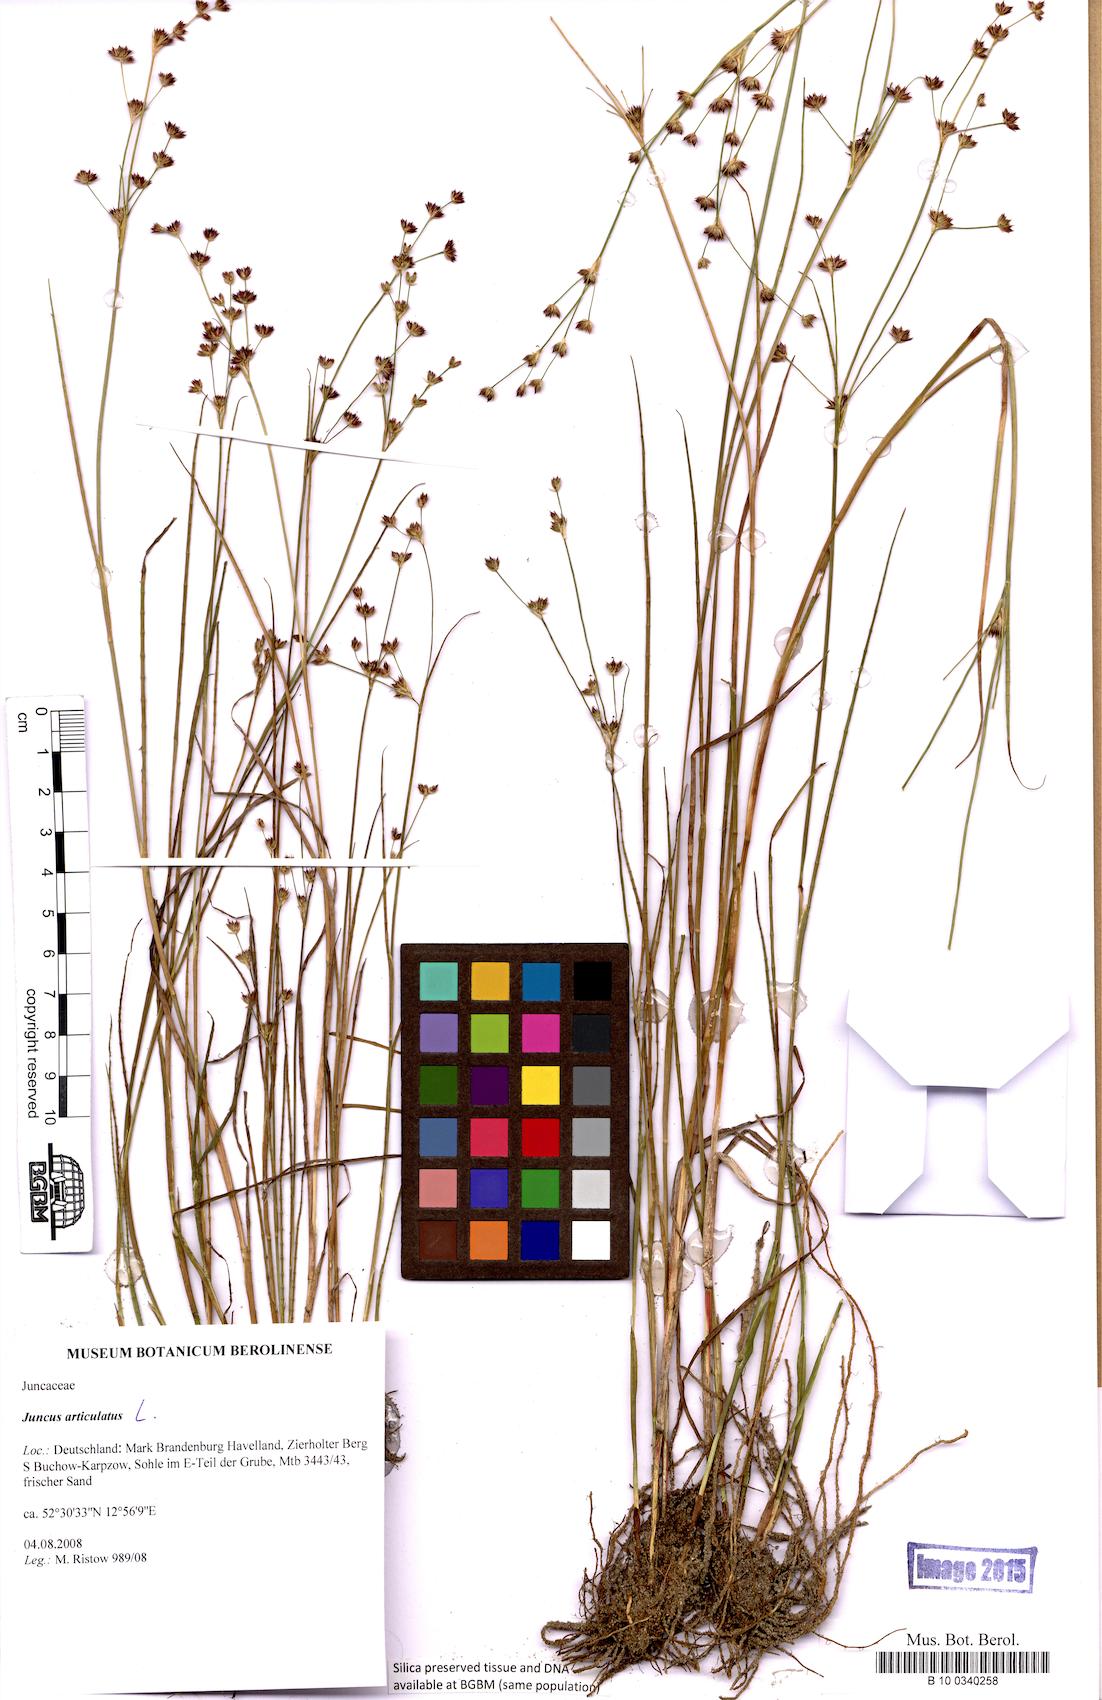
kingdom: Plantae
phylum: Tracheophyta
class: Liliopsida
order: Poales
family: Juncaceae
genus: Juncus
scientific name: Juncus articulatus
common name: Jointed rush
